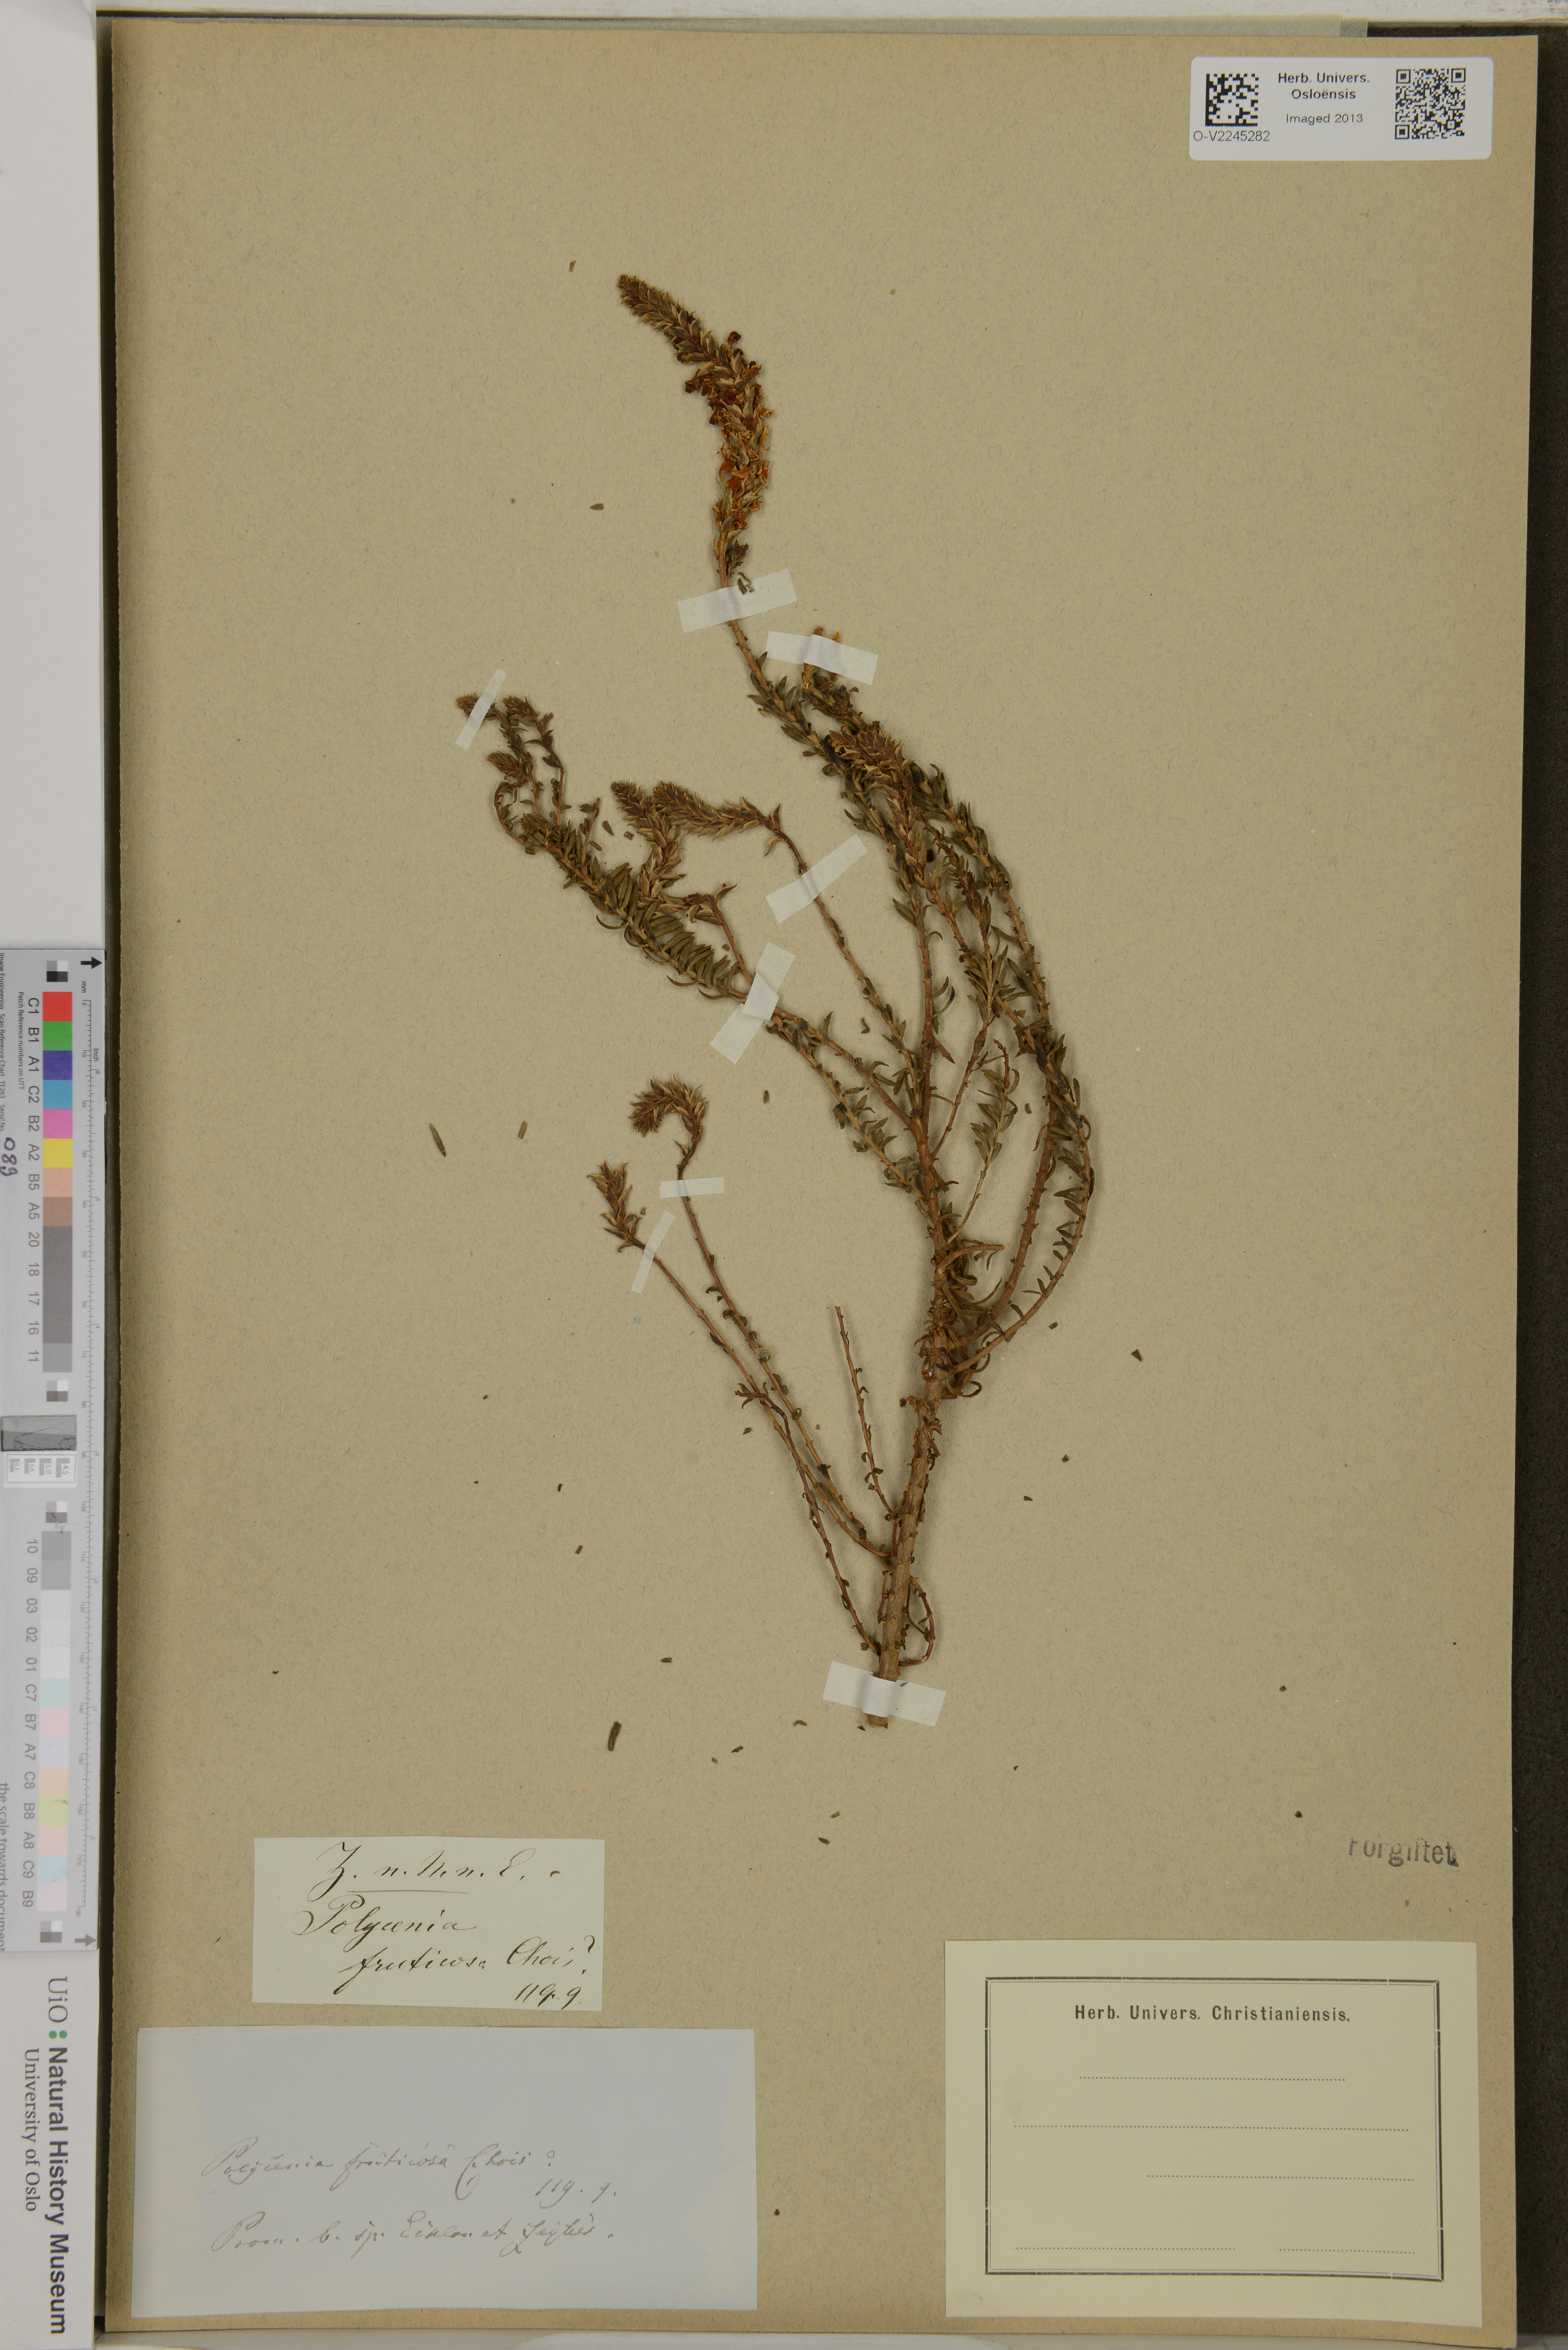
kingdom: Plantae
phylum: Tracheophyta
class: Magnoliopsida
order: Lamiales
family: Scrophulariaceae
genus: Hebenstretia
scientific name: Hebenstretia dregei
